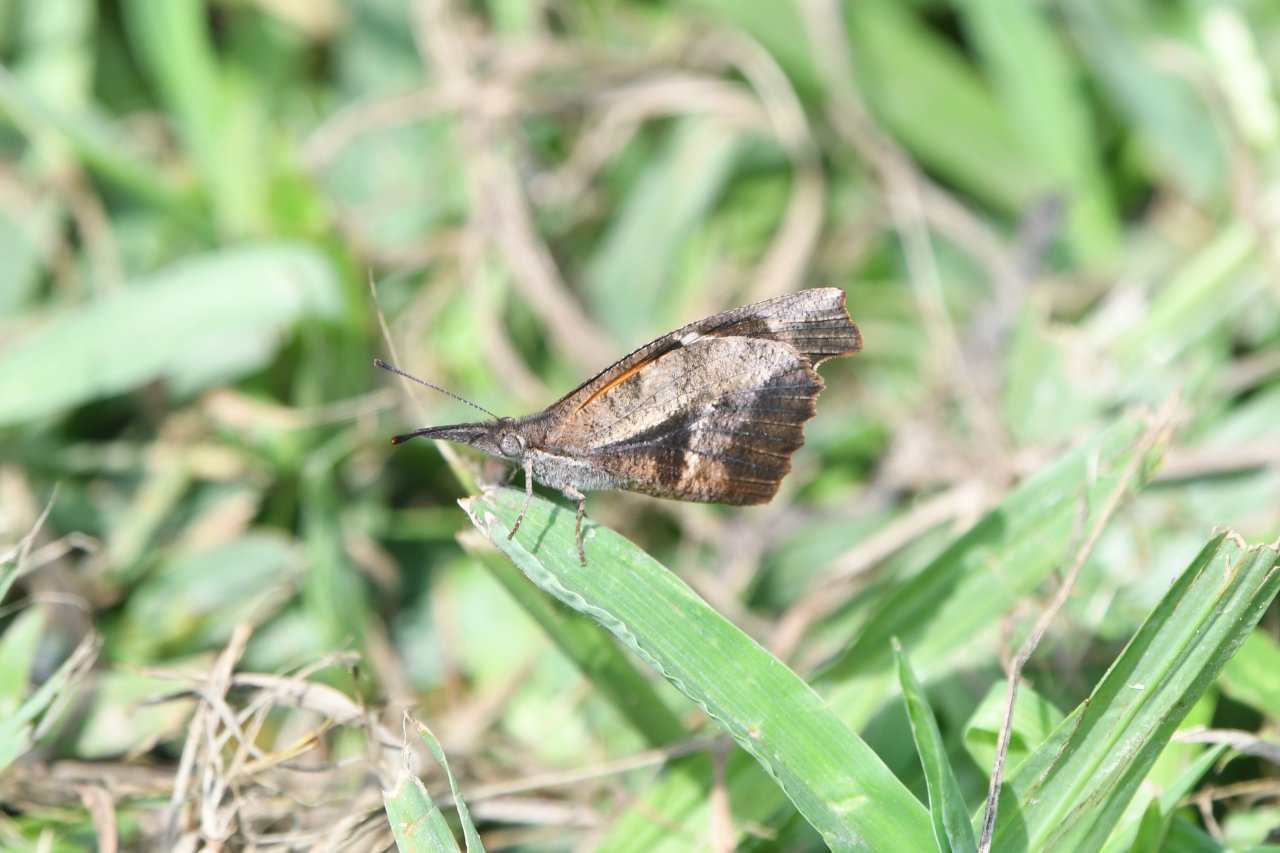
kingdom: Animalia
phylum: Arthropoda
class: Insecta
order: Lepidoptera
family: Nymphalidae
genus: Libytheana
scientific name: Libytheana carinenta
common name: American Snout
